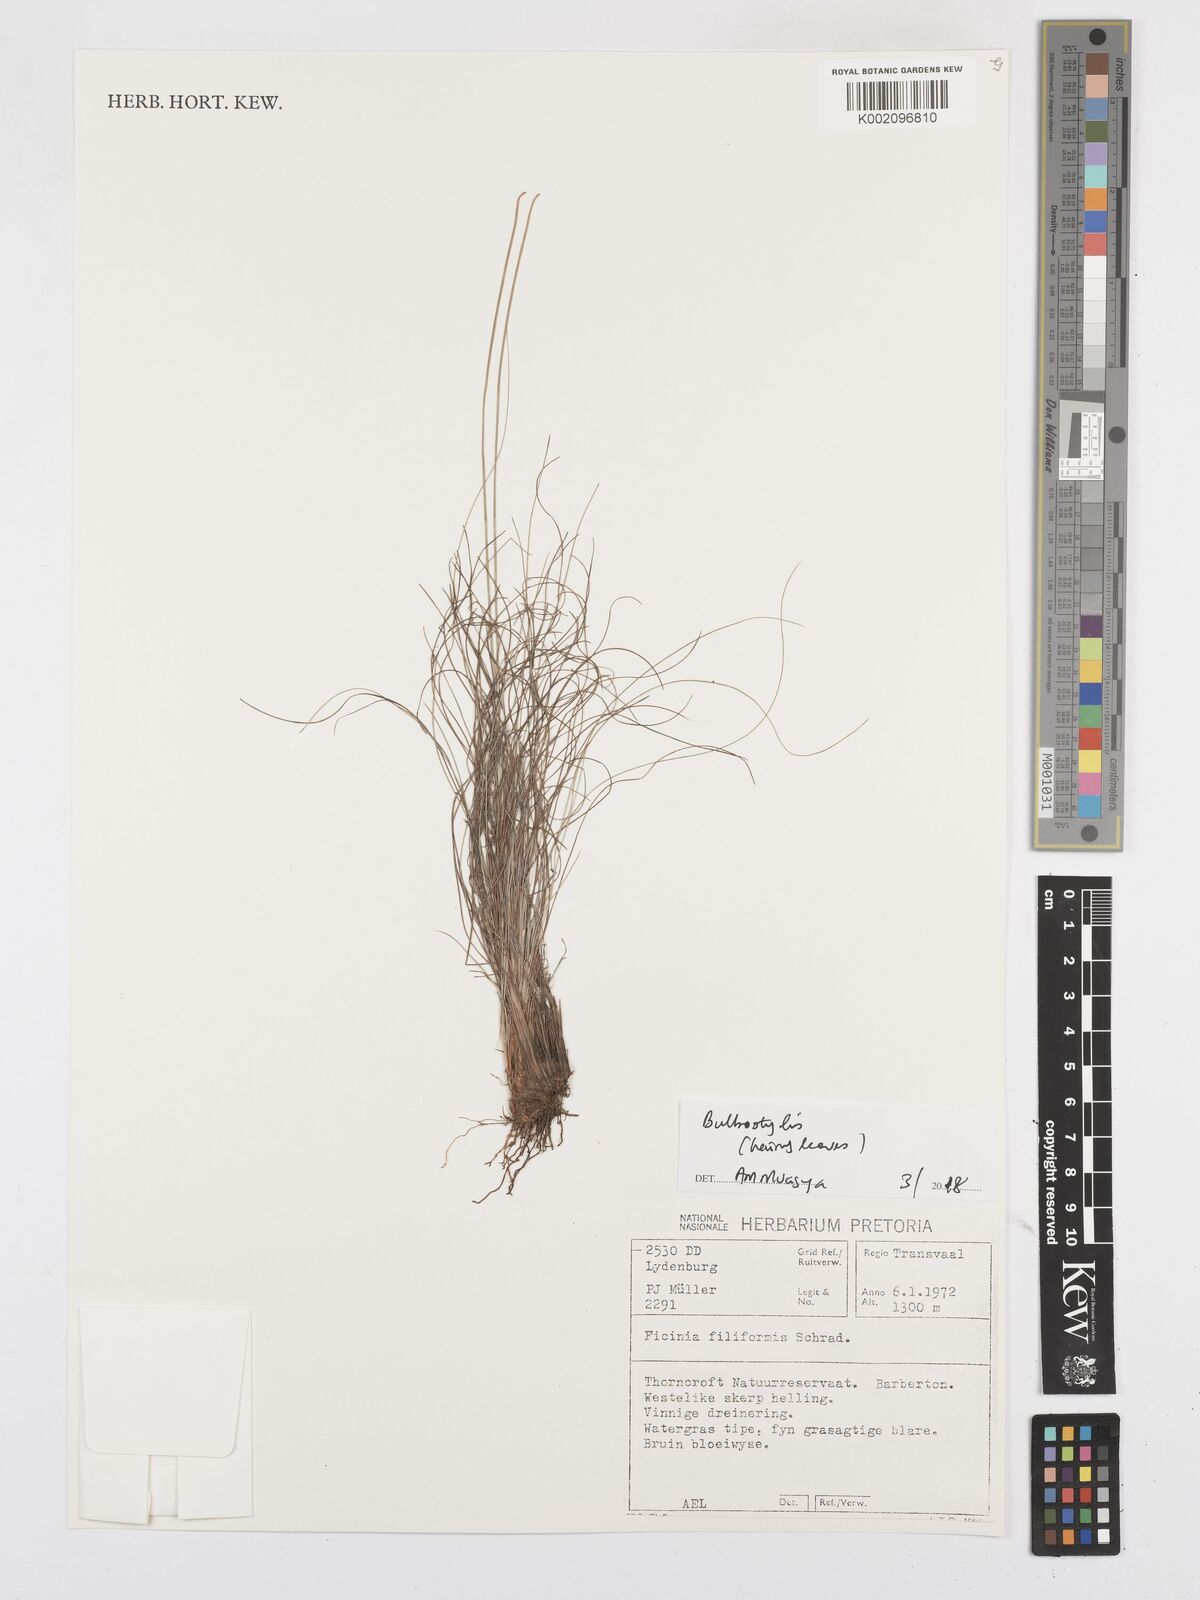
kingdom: Plantae
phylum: Tracheophyta
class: Liliopsida
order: Poales
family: Cyperaceae
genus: Bulbostylis
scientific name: Bulbostylis
